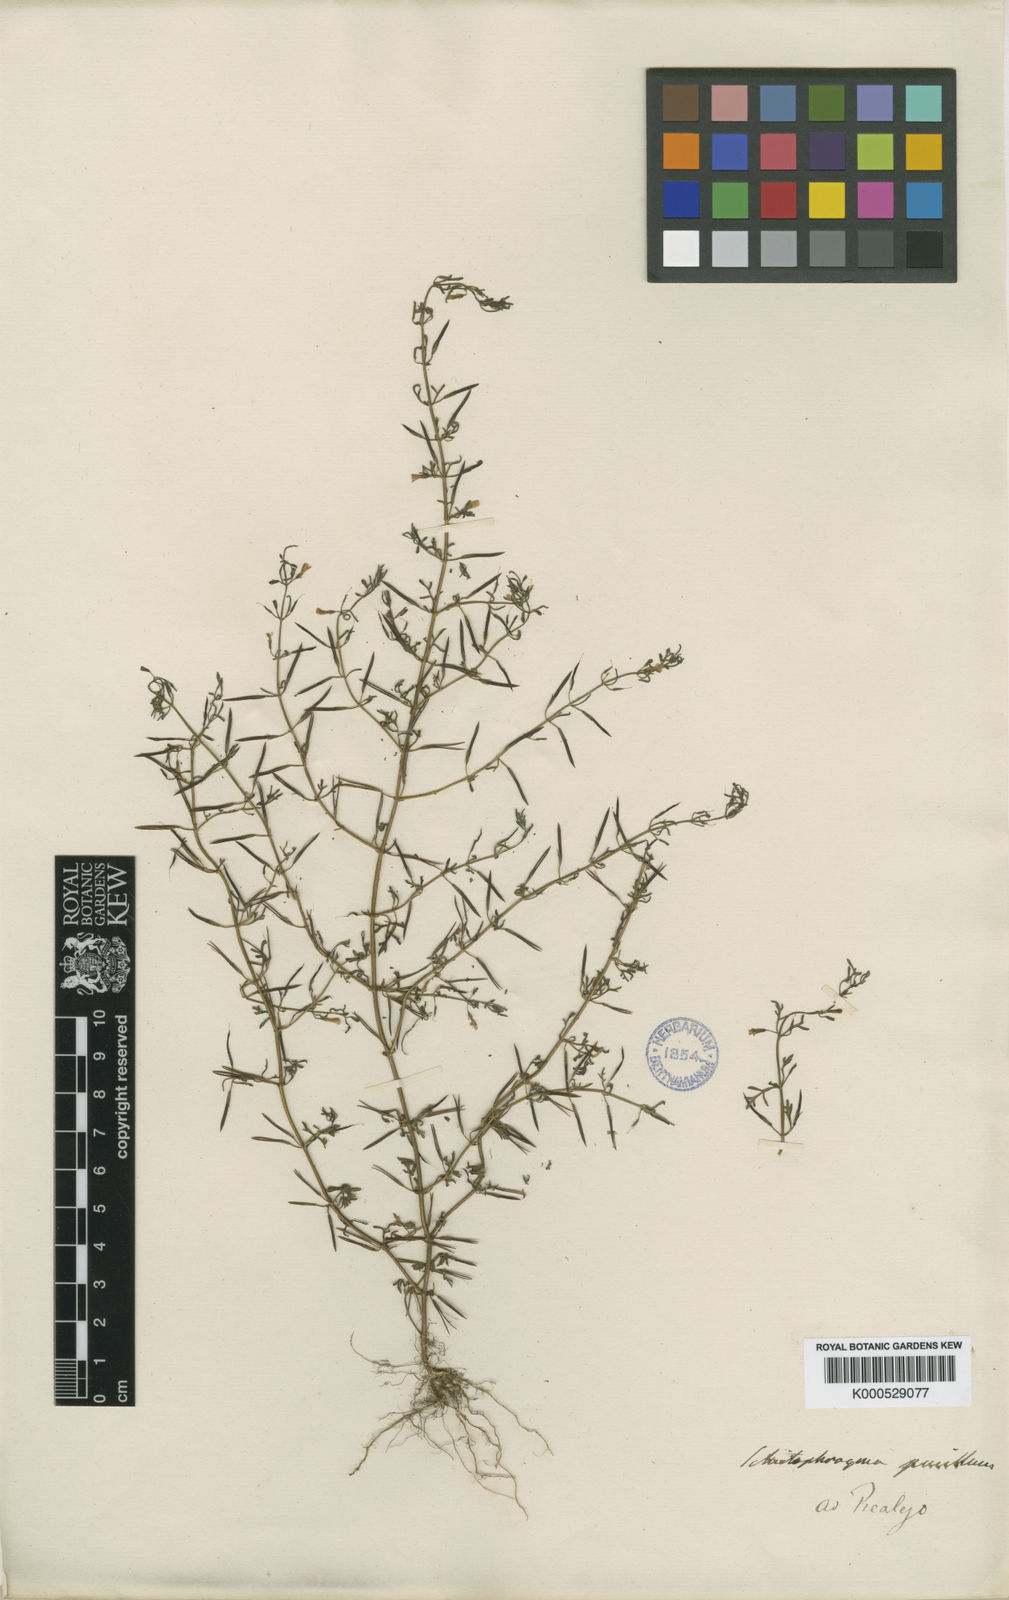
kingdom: Plantae
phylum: Tracheophyta
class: Magnoliopsida
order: Lamiales
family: Plantaginaceae
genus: Schistophragma
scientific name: Schistophragma mexicanum
